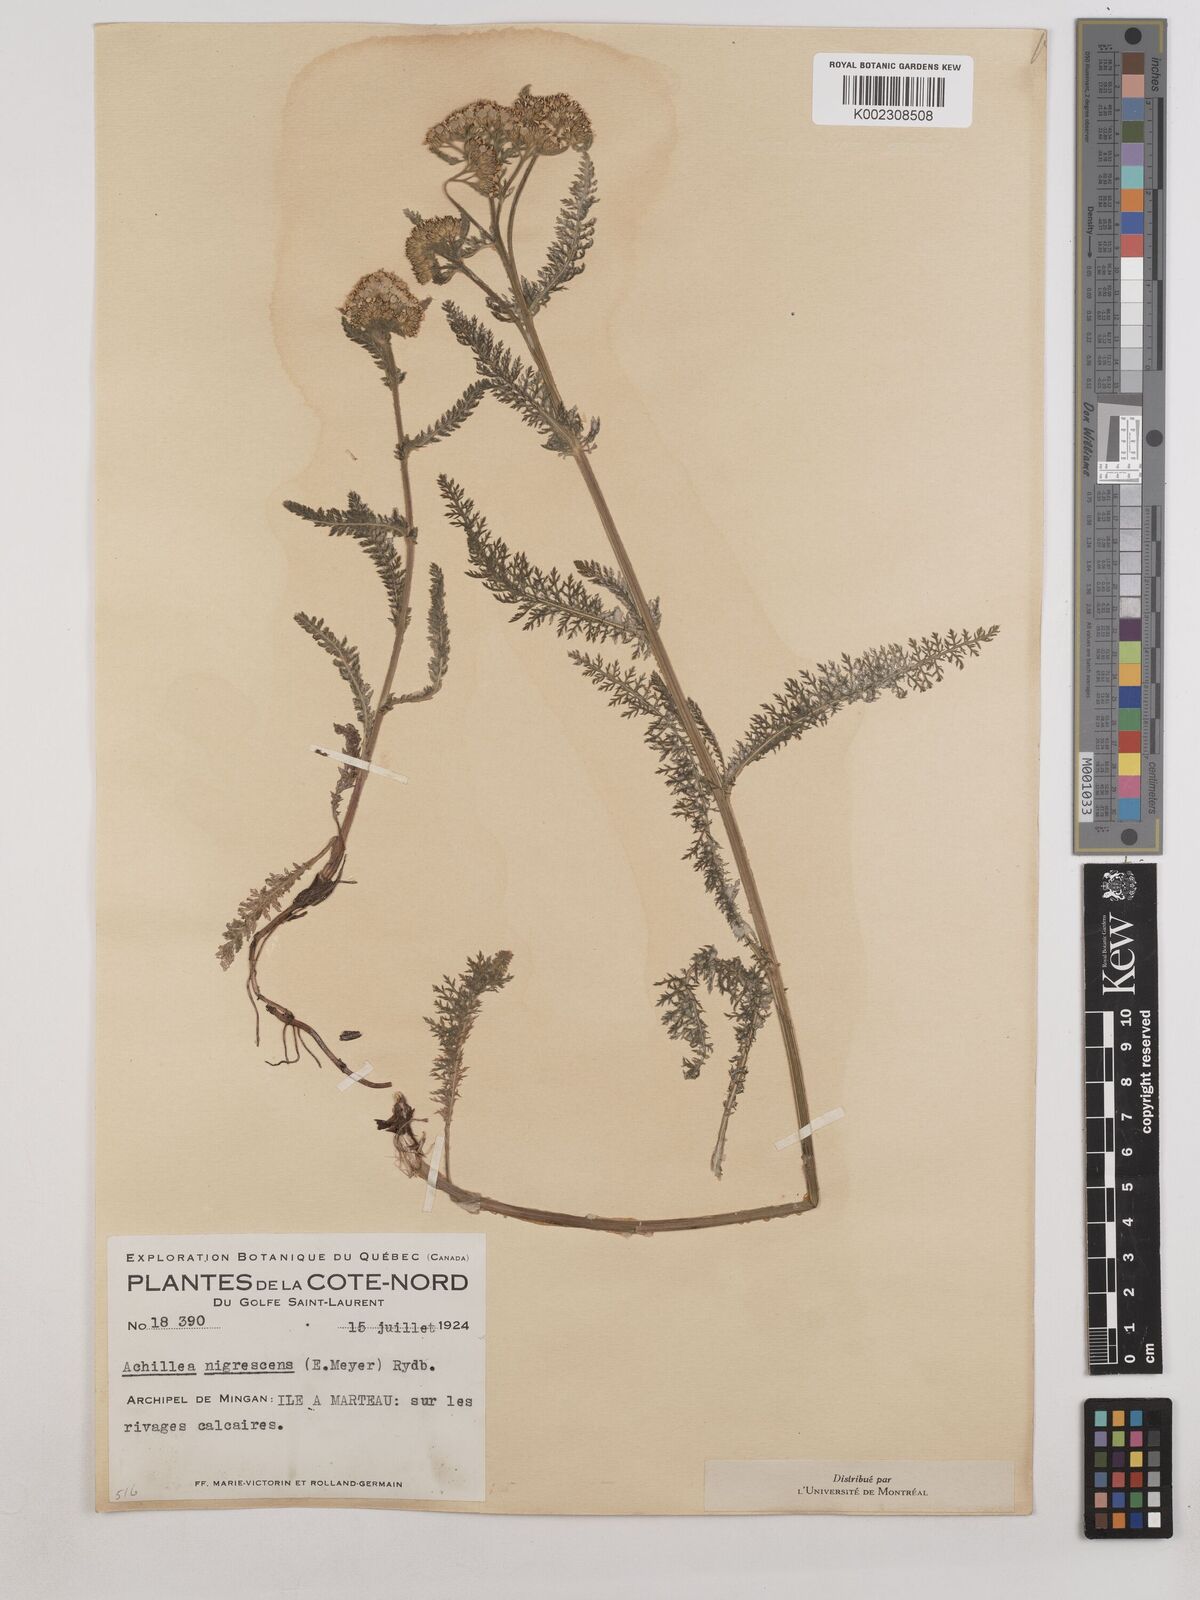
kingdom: Plantae
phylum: Tracheophyta
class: Magnoliopsida
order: Asterales
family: Asteraceae
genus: Achillea
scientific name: Achillea millefolium
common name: Yarrow
